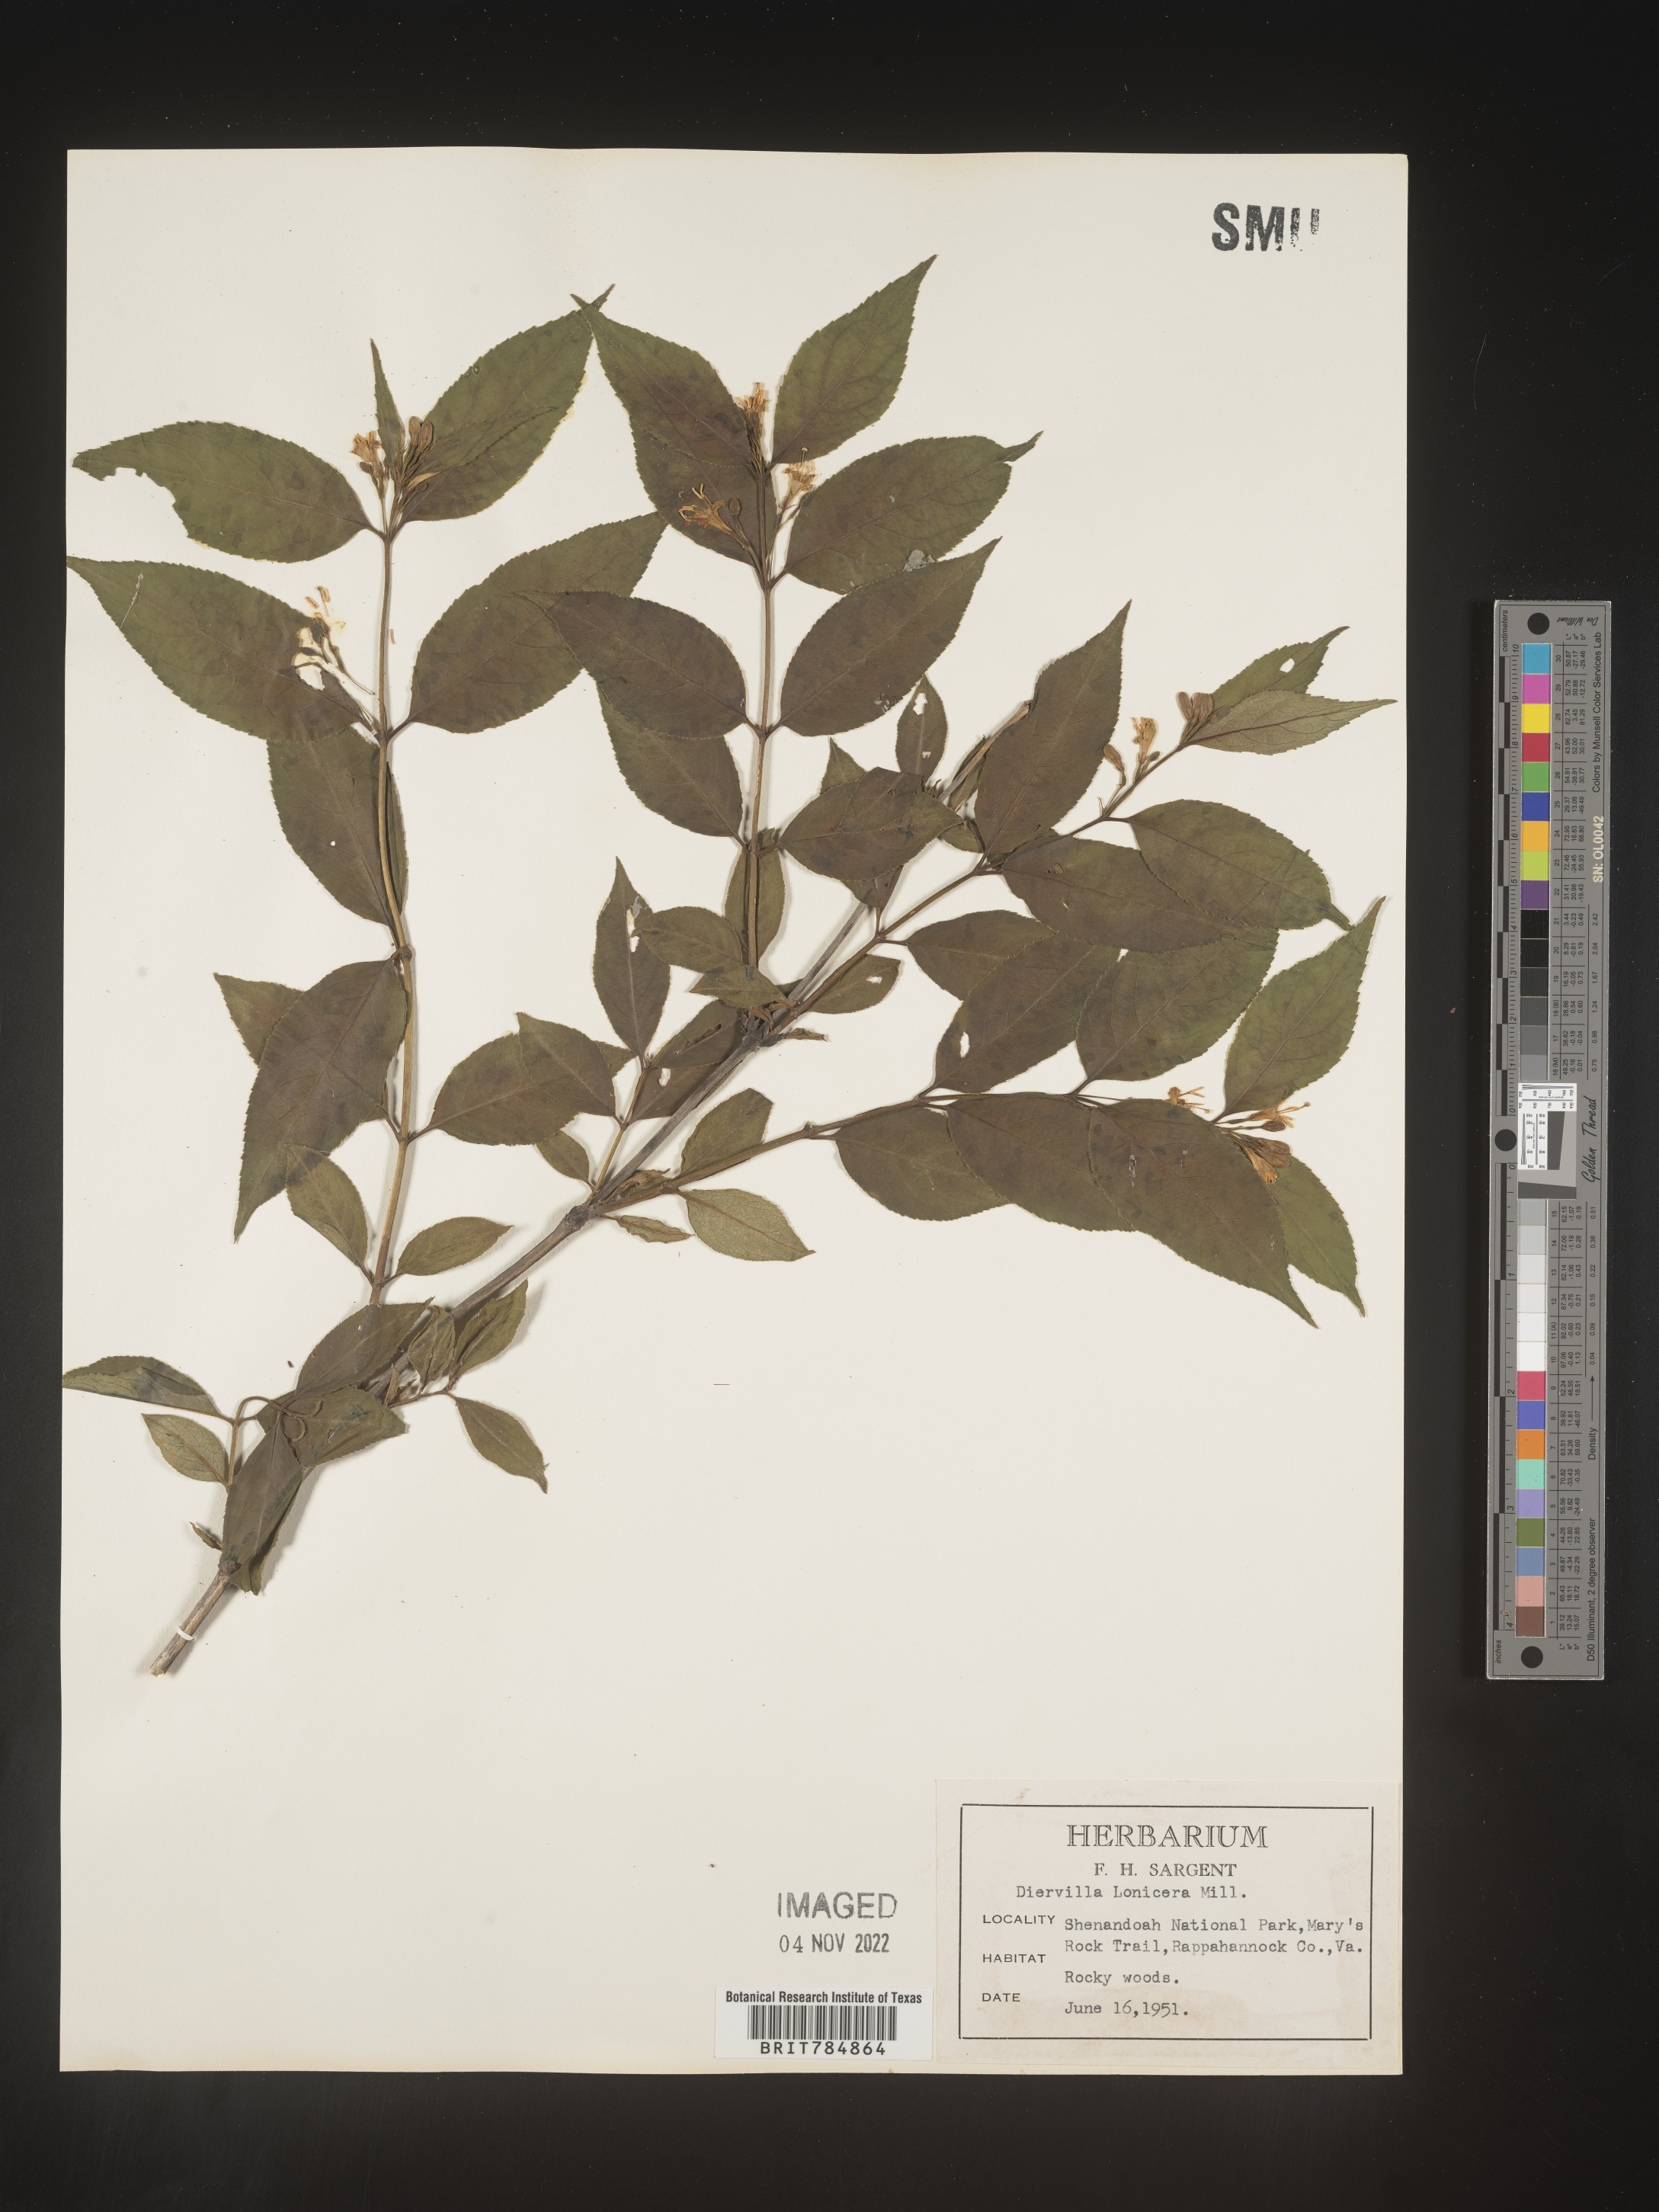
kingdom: Plantae
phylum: Tracheophyta
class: Magnoliopsida
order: Dipsacales
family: Caprifoliaceae
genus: Diervilla
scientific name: Diervilla lonicera
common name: Bush-honeysuckle
